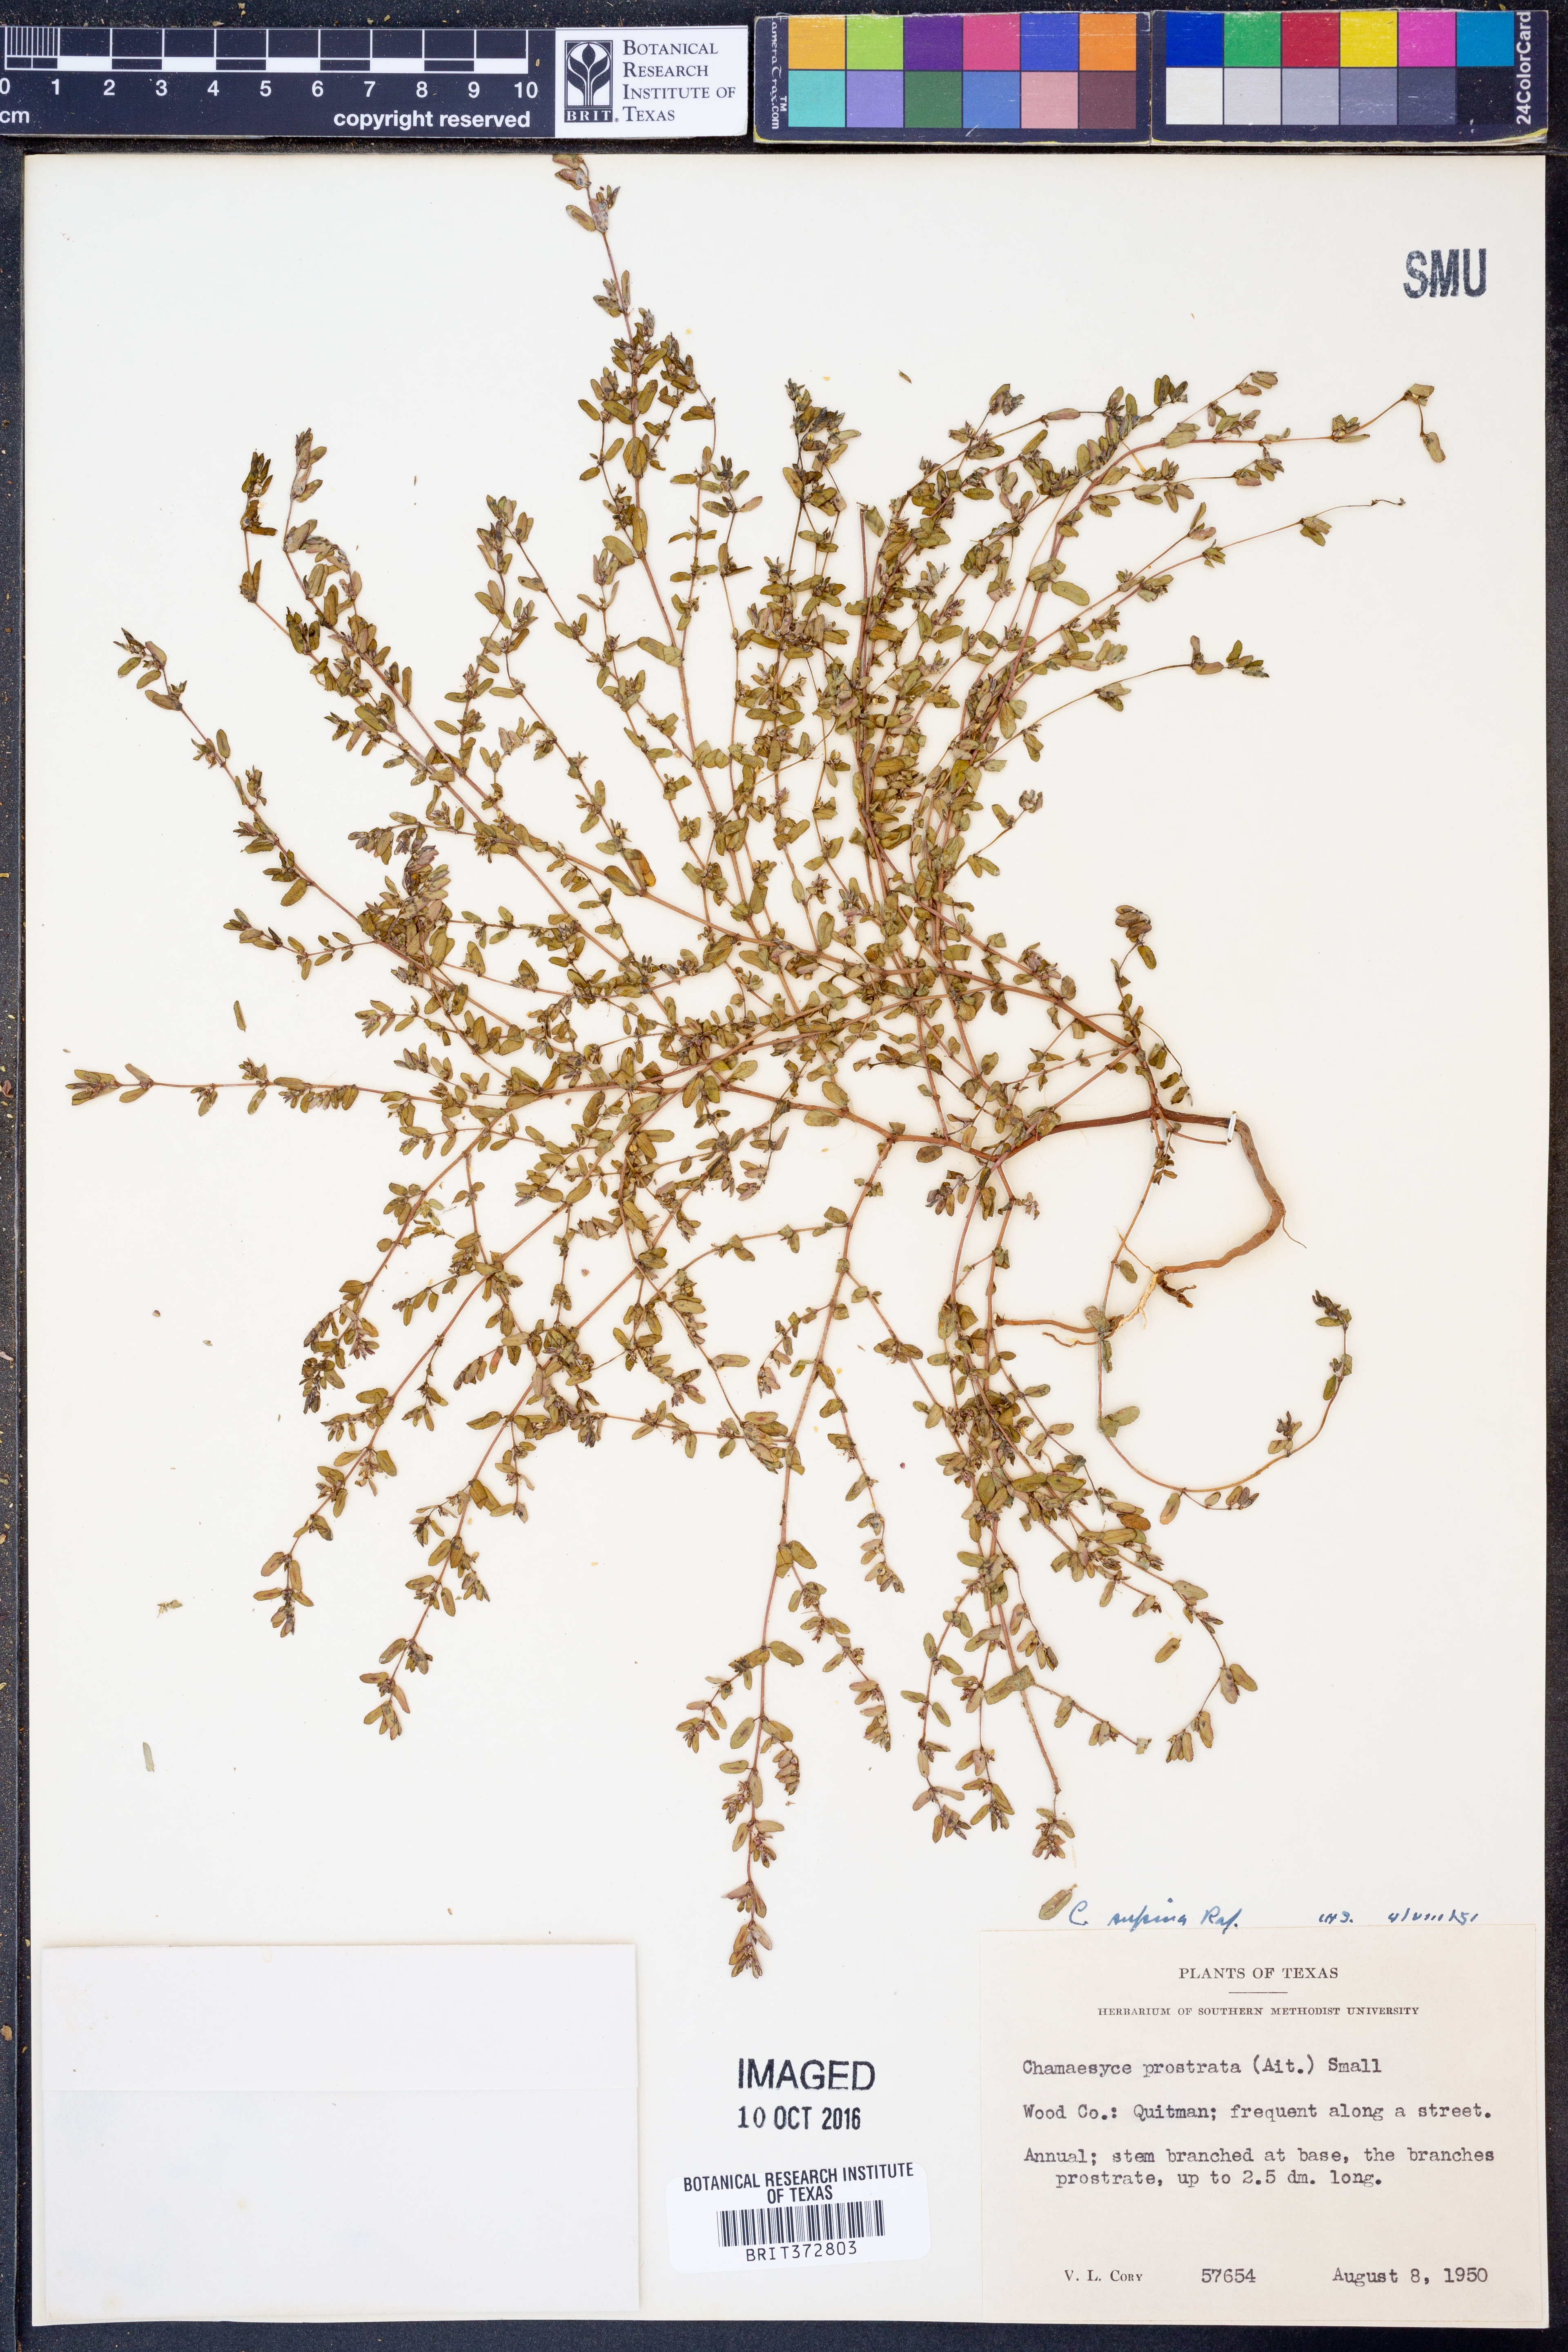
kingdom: Plantae
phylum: Tracheophyta
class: Magnoliopsida
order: Malpighiales
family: Euphorbiaceae
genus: Euphorbia
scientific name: Euphorbia maculata
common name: Spotted spurge
